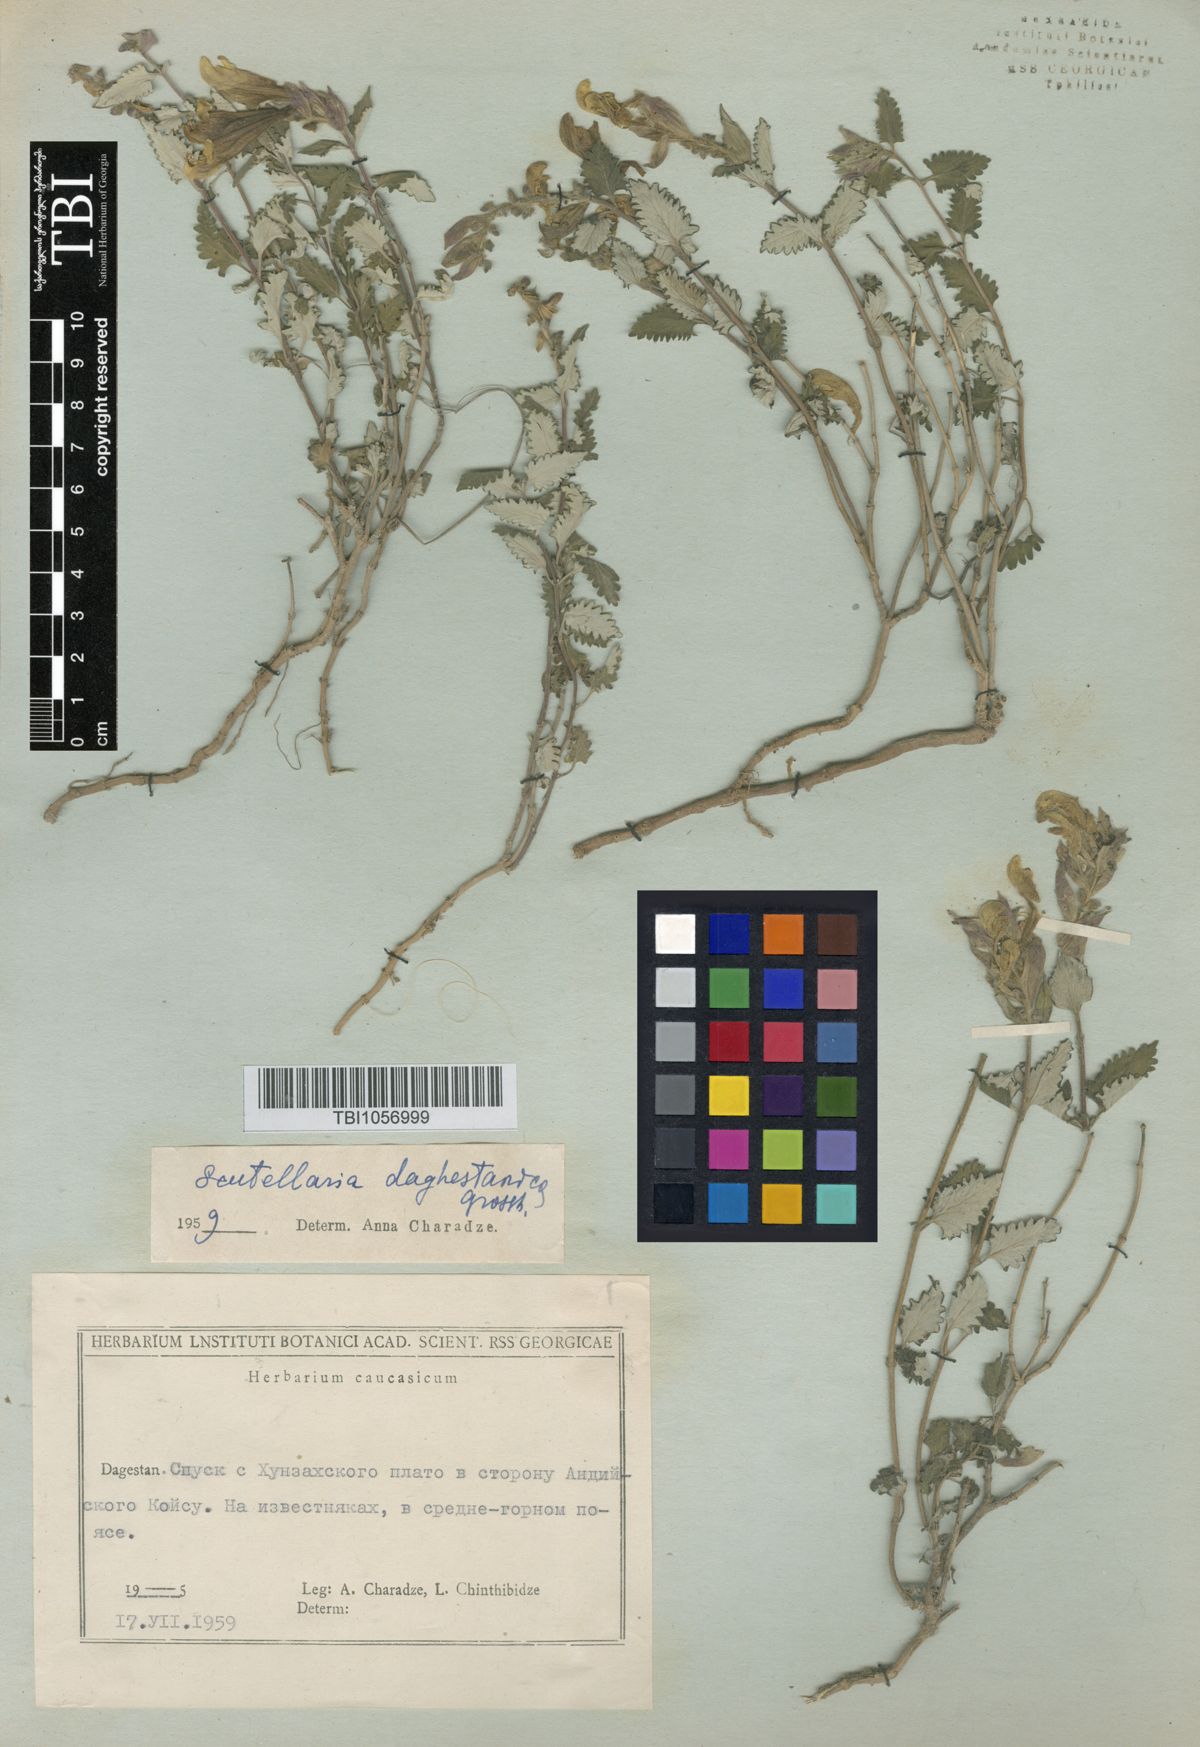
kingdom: Plantae
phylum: Tracheophyta
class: Magnoliopsida
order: Lamiales
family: Lamiaceae
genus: Scutellaria
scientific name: Scutellaria daghestanica
